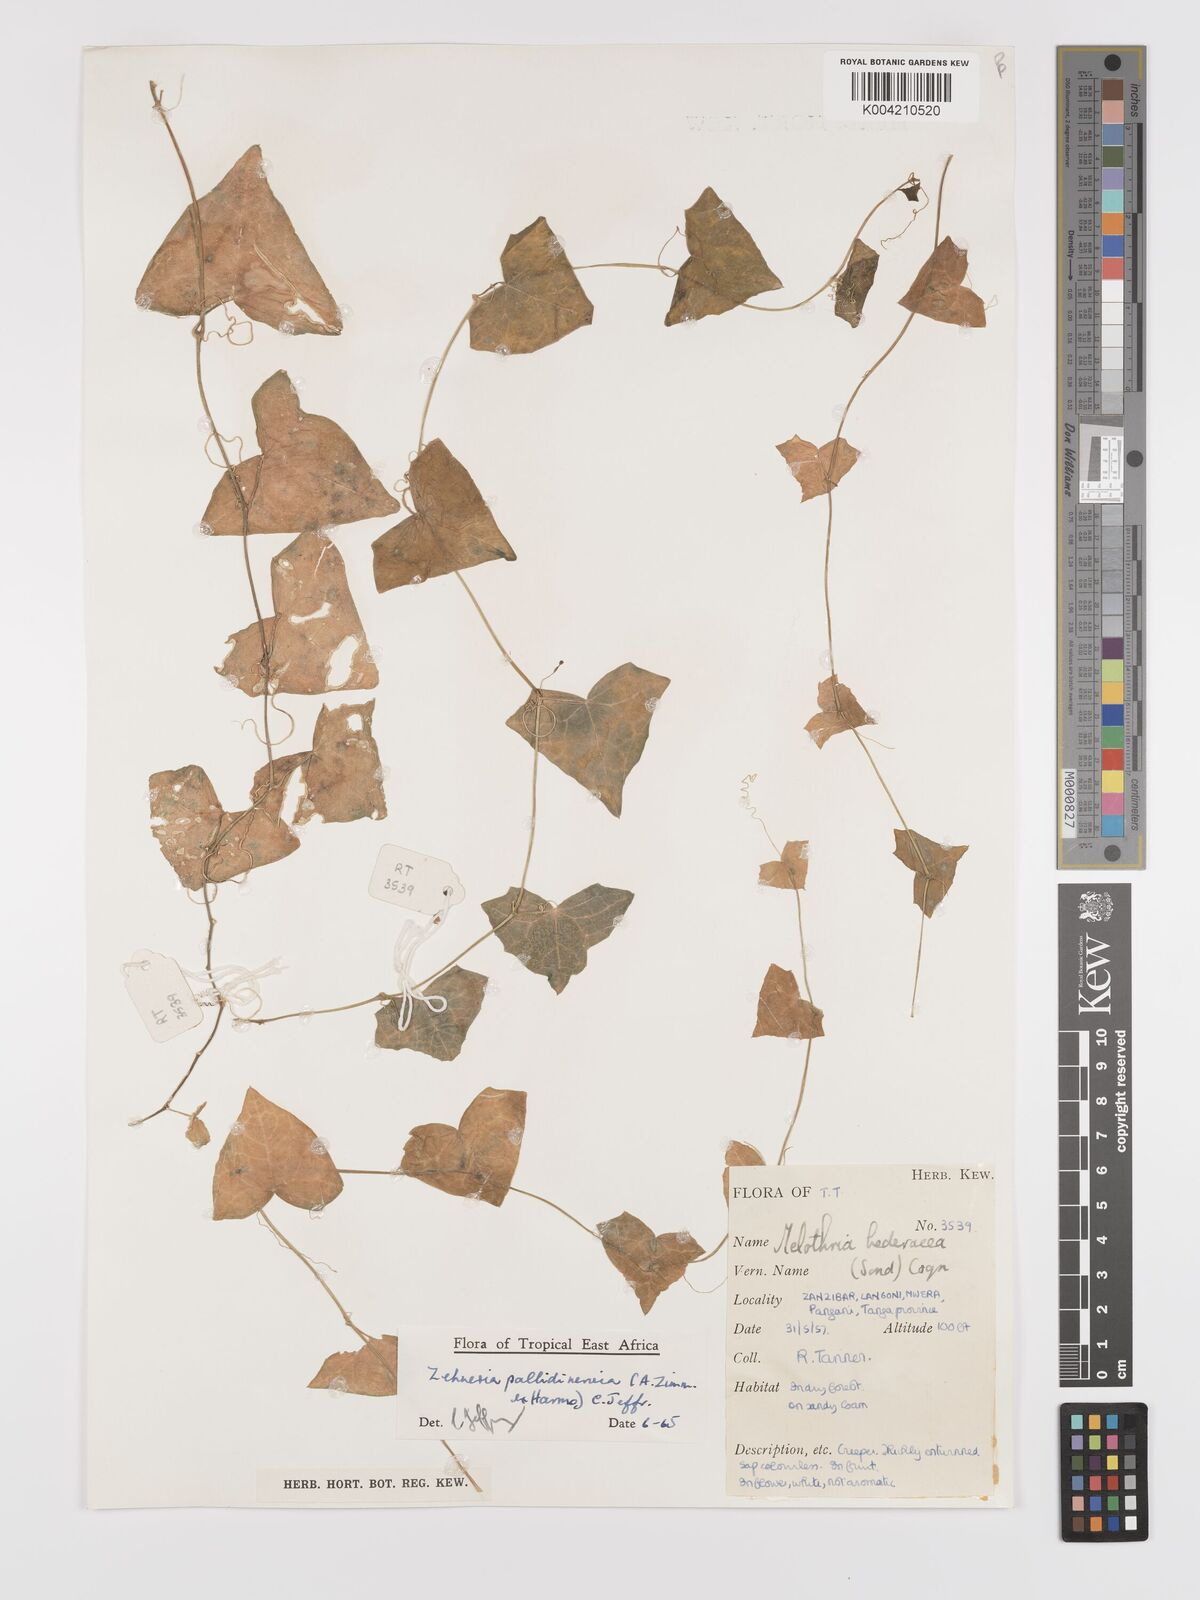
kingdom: Plantae
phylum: Tracheophyta
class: Magnoliopsida
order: Cucurbitales
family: Cucurbitaceae
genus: Zehneria
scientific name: Zehneria pallidinervia
